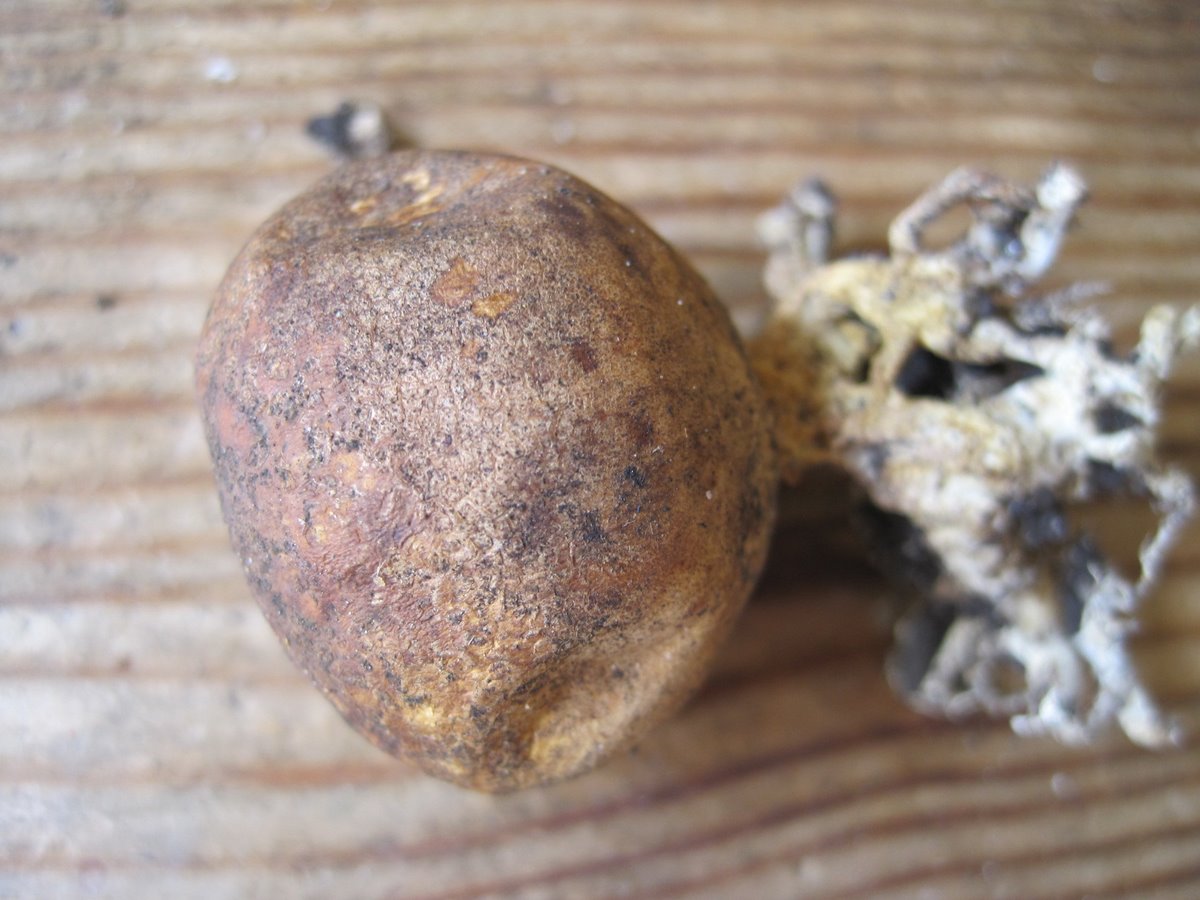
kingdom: Fungi
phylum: Basidiomycota
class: Agaricomycetes
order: Boletales
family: Sclerodermataceae
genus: Scleroderma
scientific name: Scleroderma areolatum
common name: plettet bruskbold
